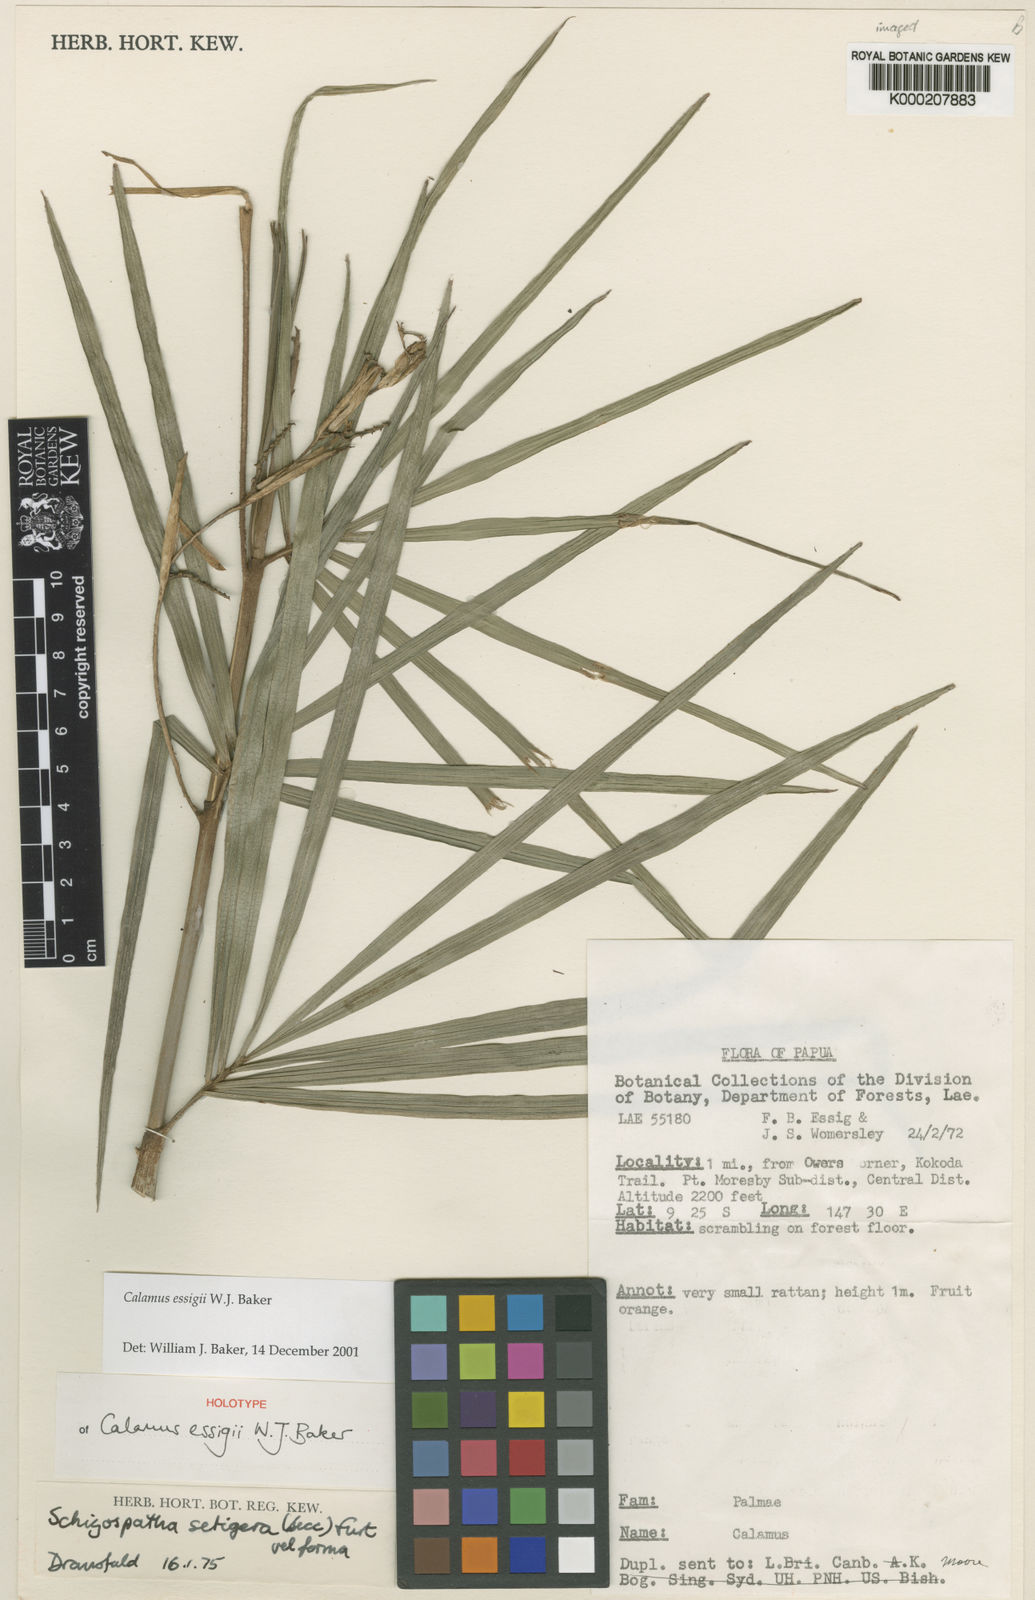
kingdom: Plantae
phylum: Tracheophyta
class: Liliopsida
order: Arecales
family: Arecaceae
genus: Calamus
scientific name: Calamus essigii
